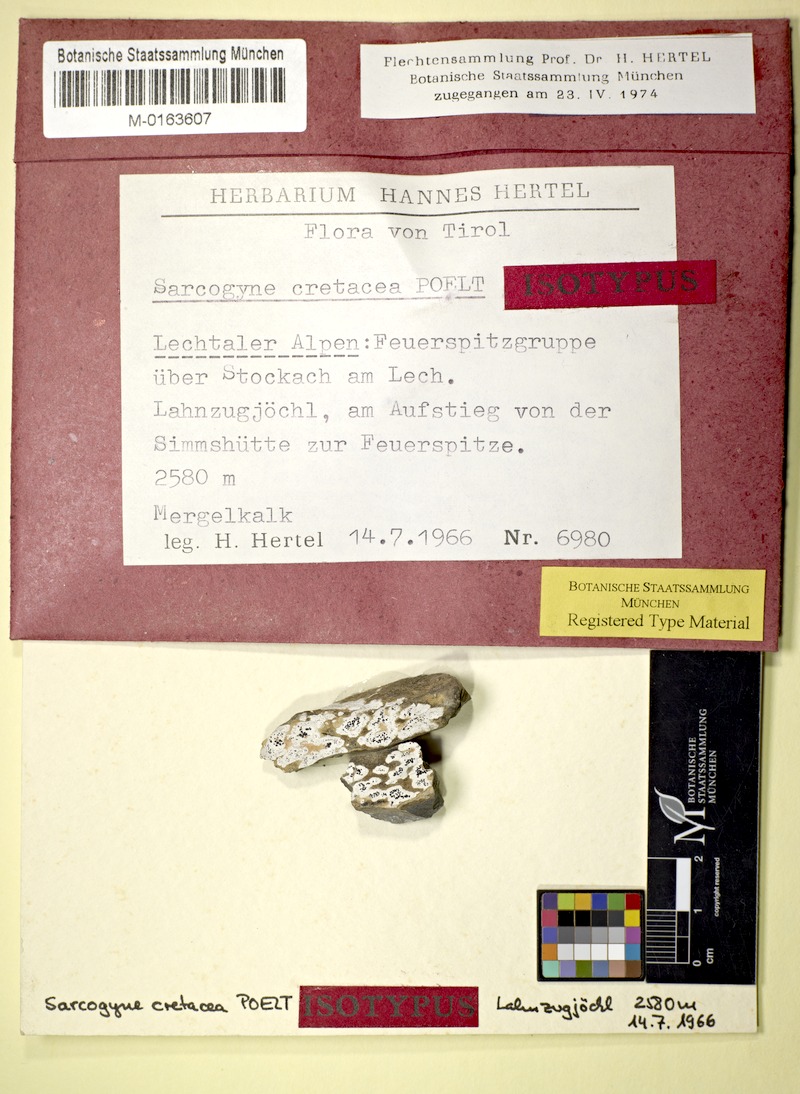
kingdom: Fungi
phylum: Ascomycota
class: Lecanoromycetes
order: Acarosporales
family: Acarosporaceae
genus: Sarcogyne
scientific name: Sarcogyne cretacea
